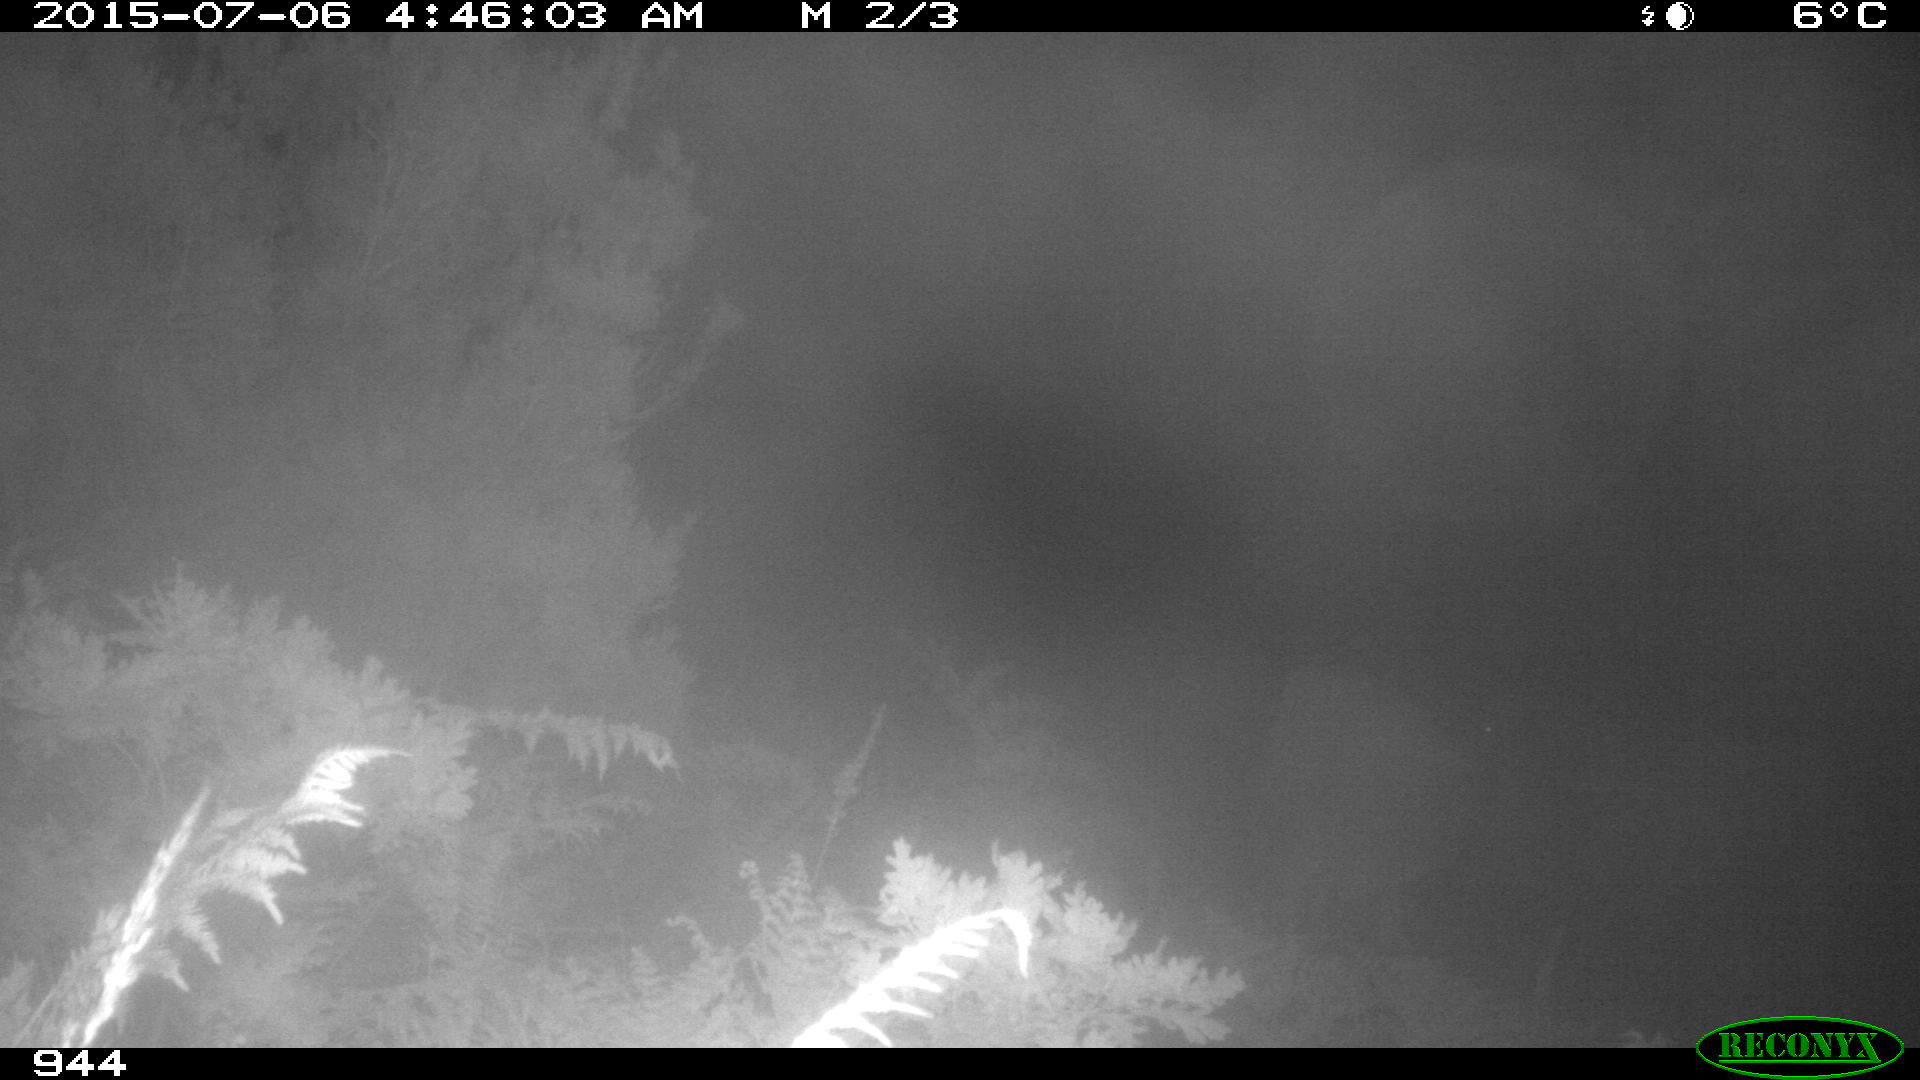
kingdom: Animalia
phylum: Chordata
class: Mammalia
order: Artiodactyla
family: Bovidae
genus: Bos
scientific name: Bos taurus
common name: Domesticated cattle
